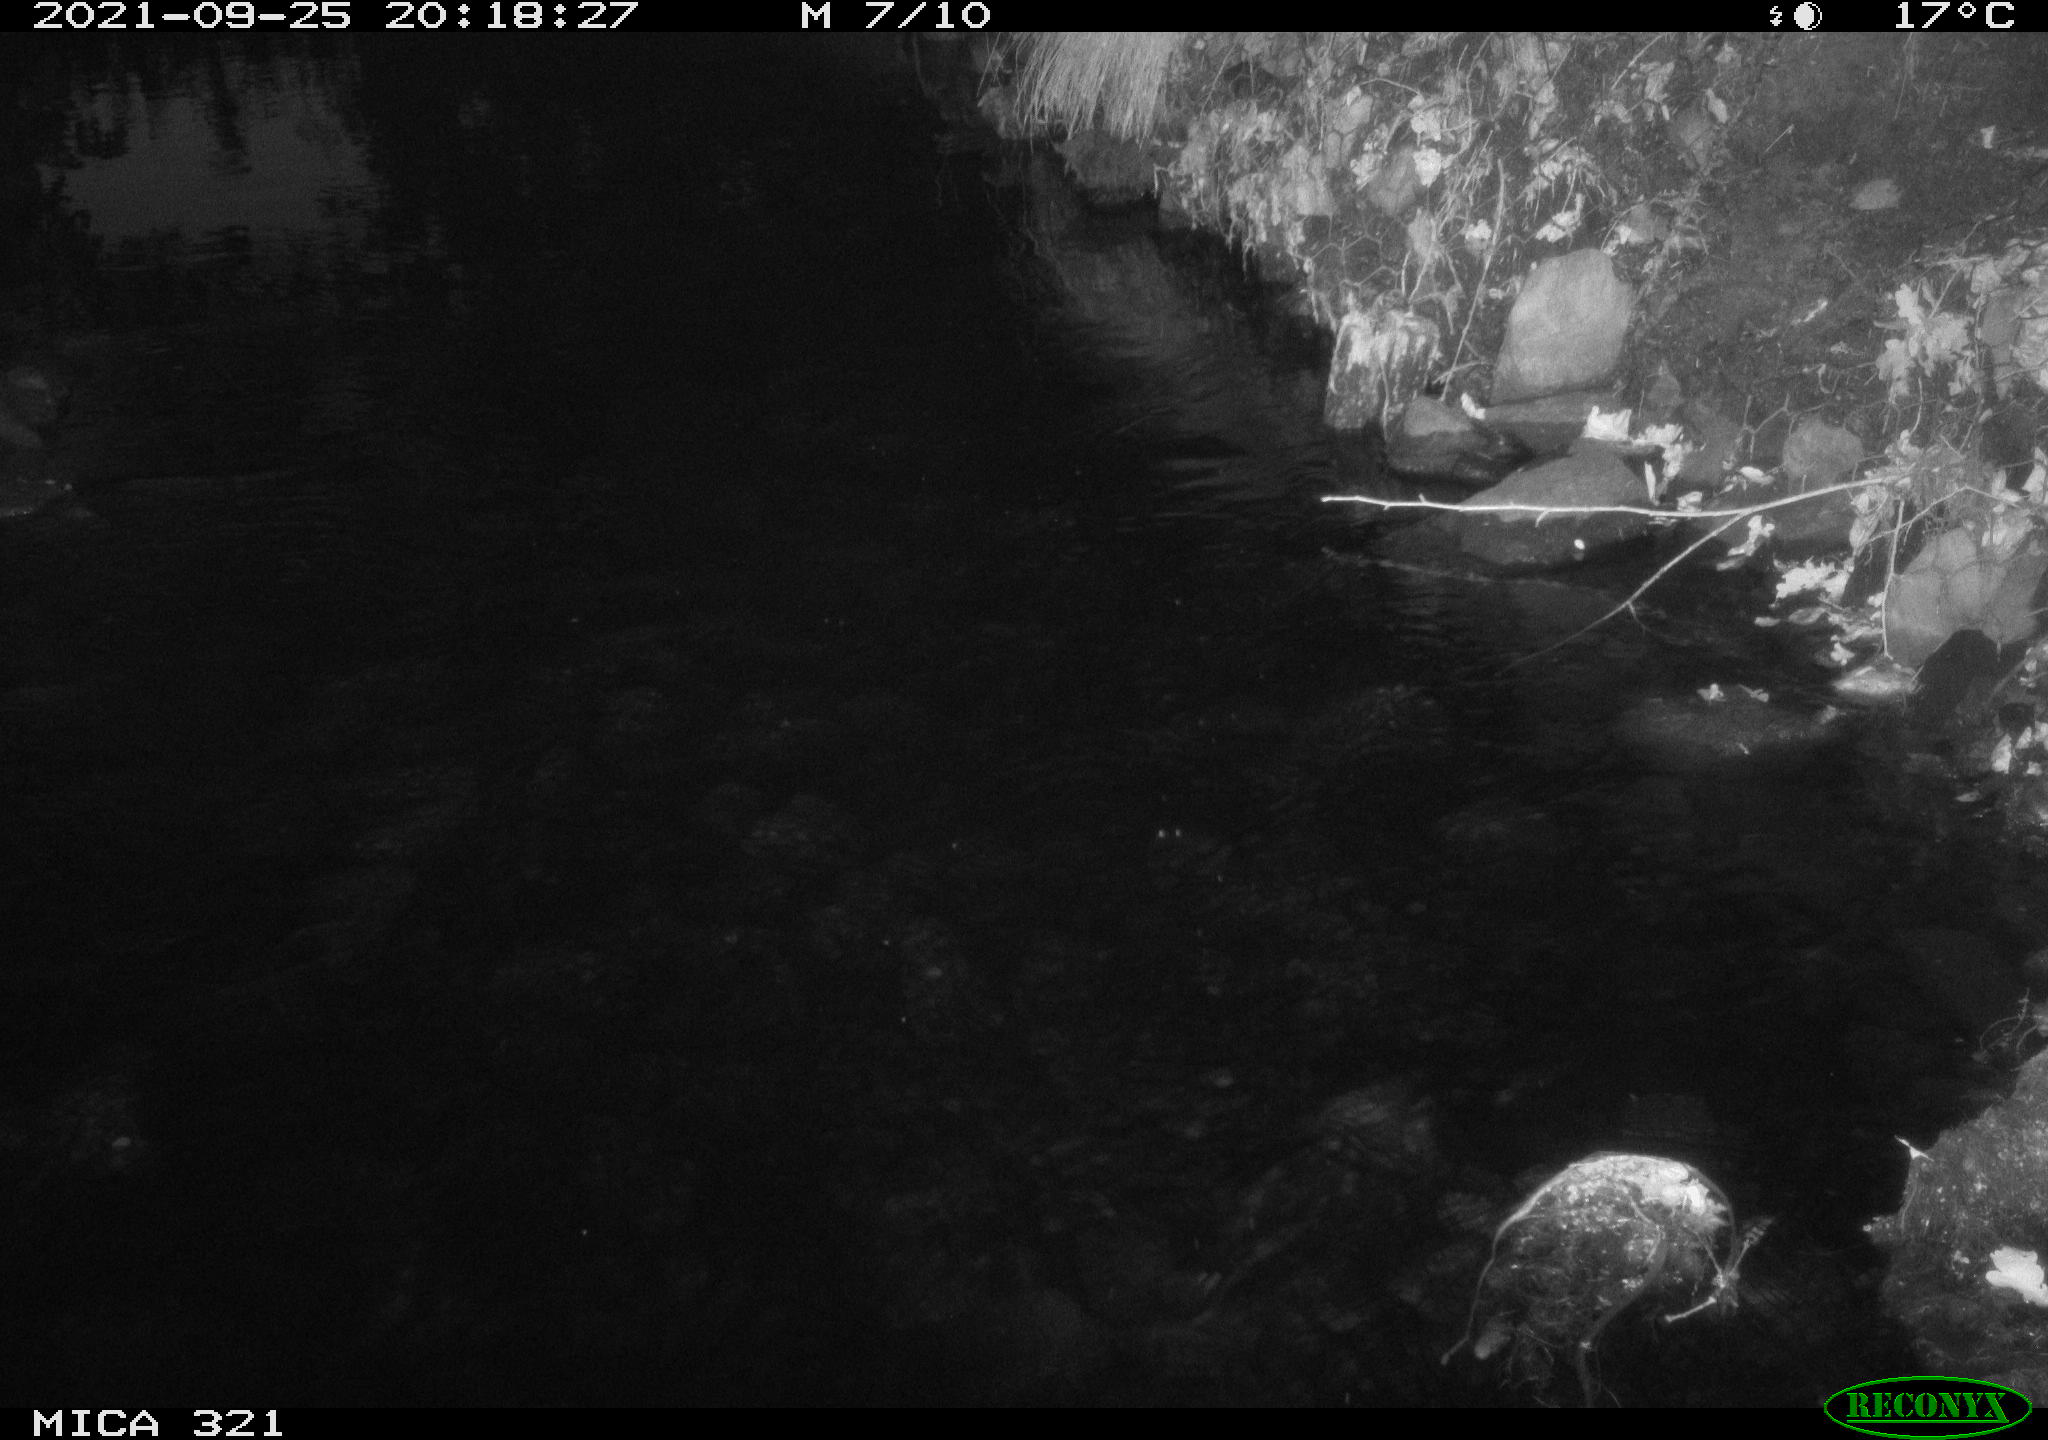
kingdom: Animalia
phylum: Chordata
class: Aves
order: Anseriformes
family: Anatidae
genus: Anas
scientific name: Anas platyrhynchos
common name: Mallard
